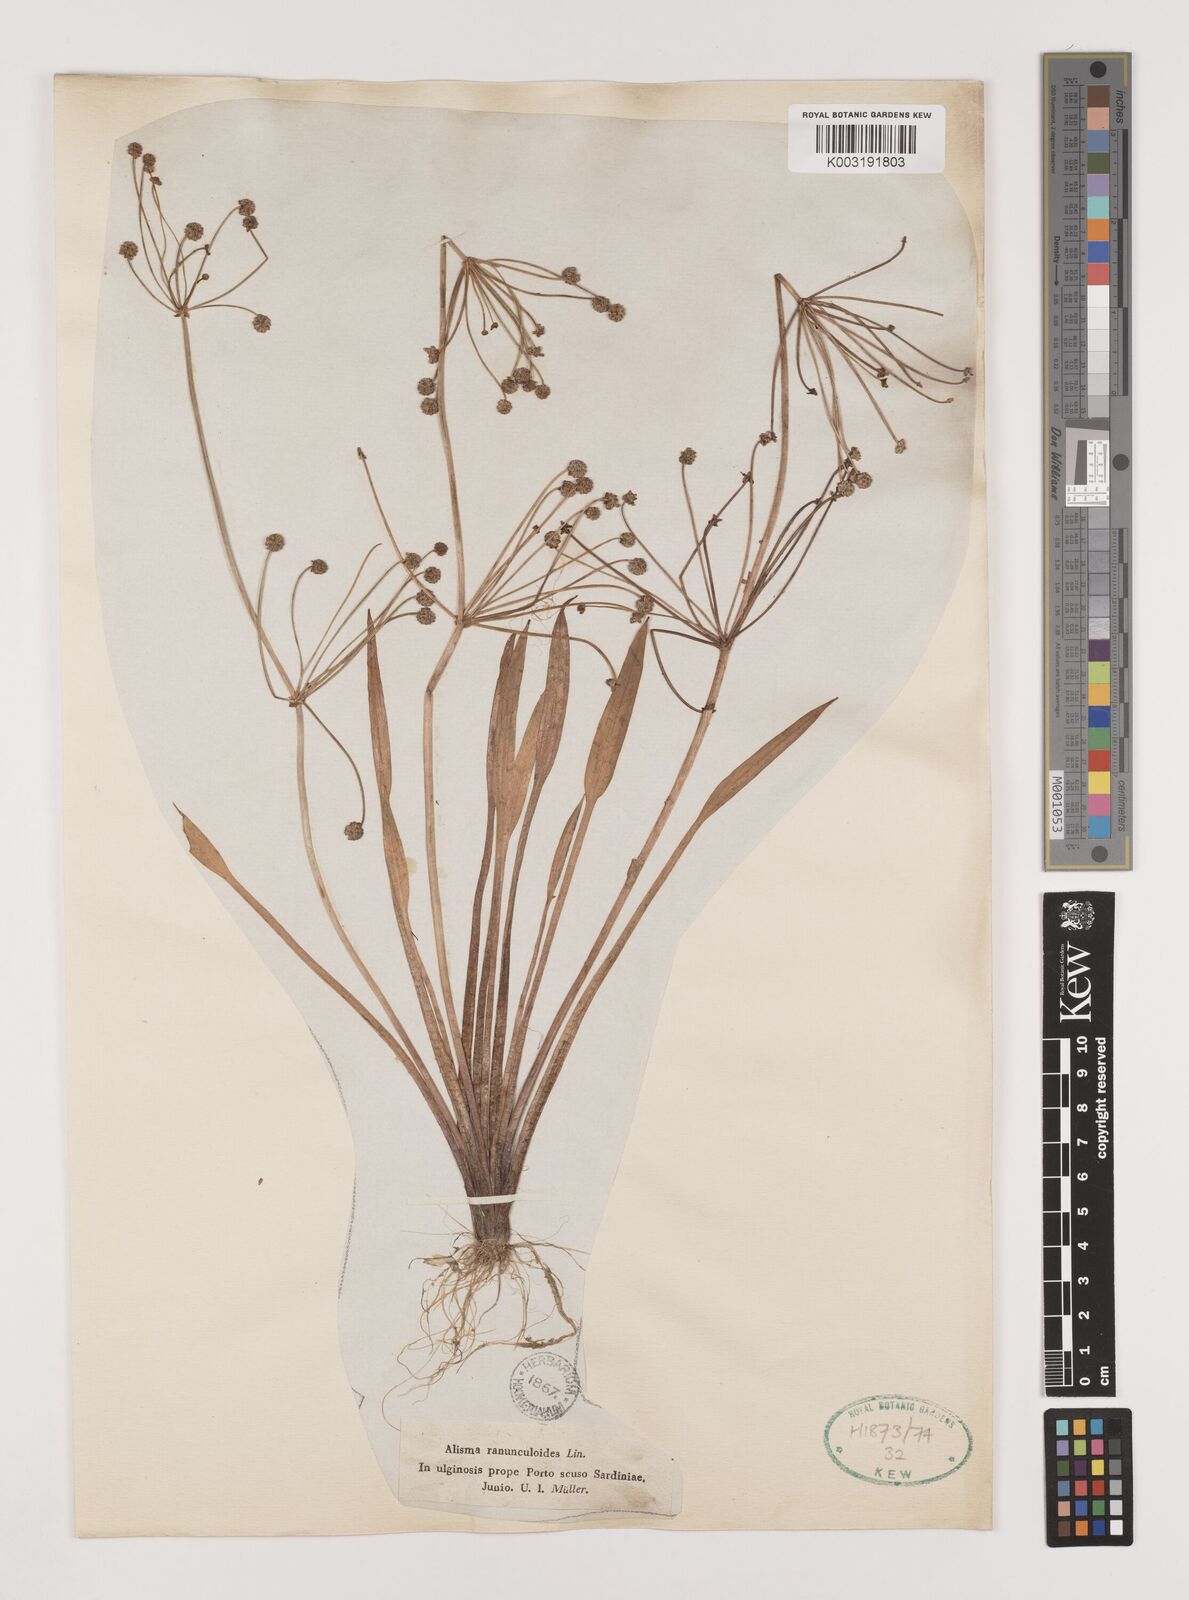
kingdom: Plantae
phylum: Tracheophyta
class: Liliopsida
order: Alismatales
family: Alismataceae
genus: Baldellia
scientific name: Baldellia ranunculoides
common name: Lesser water-plantain
